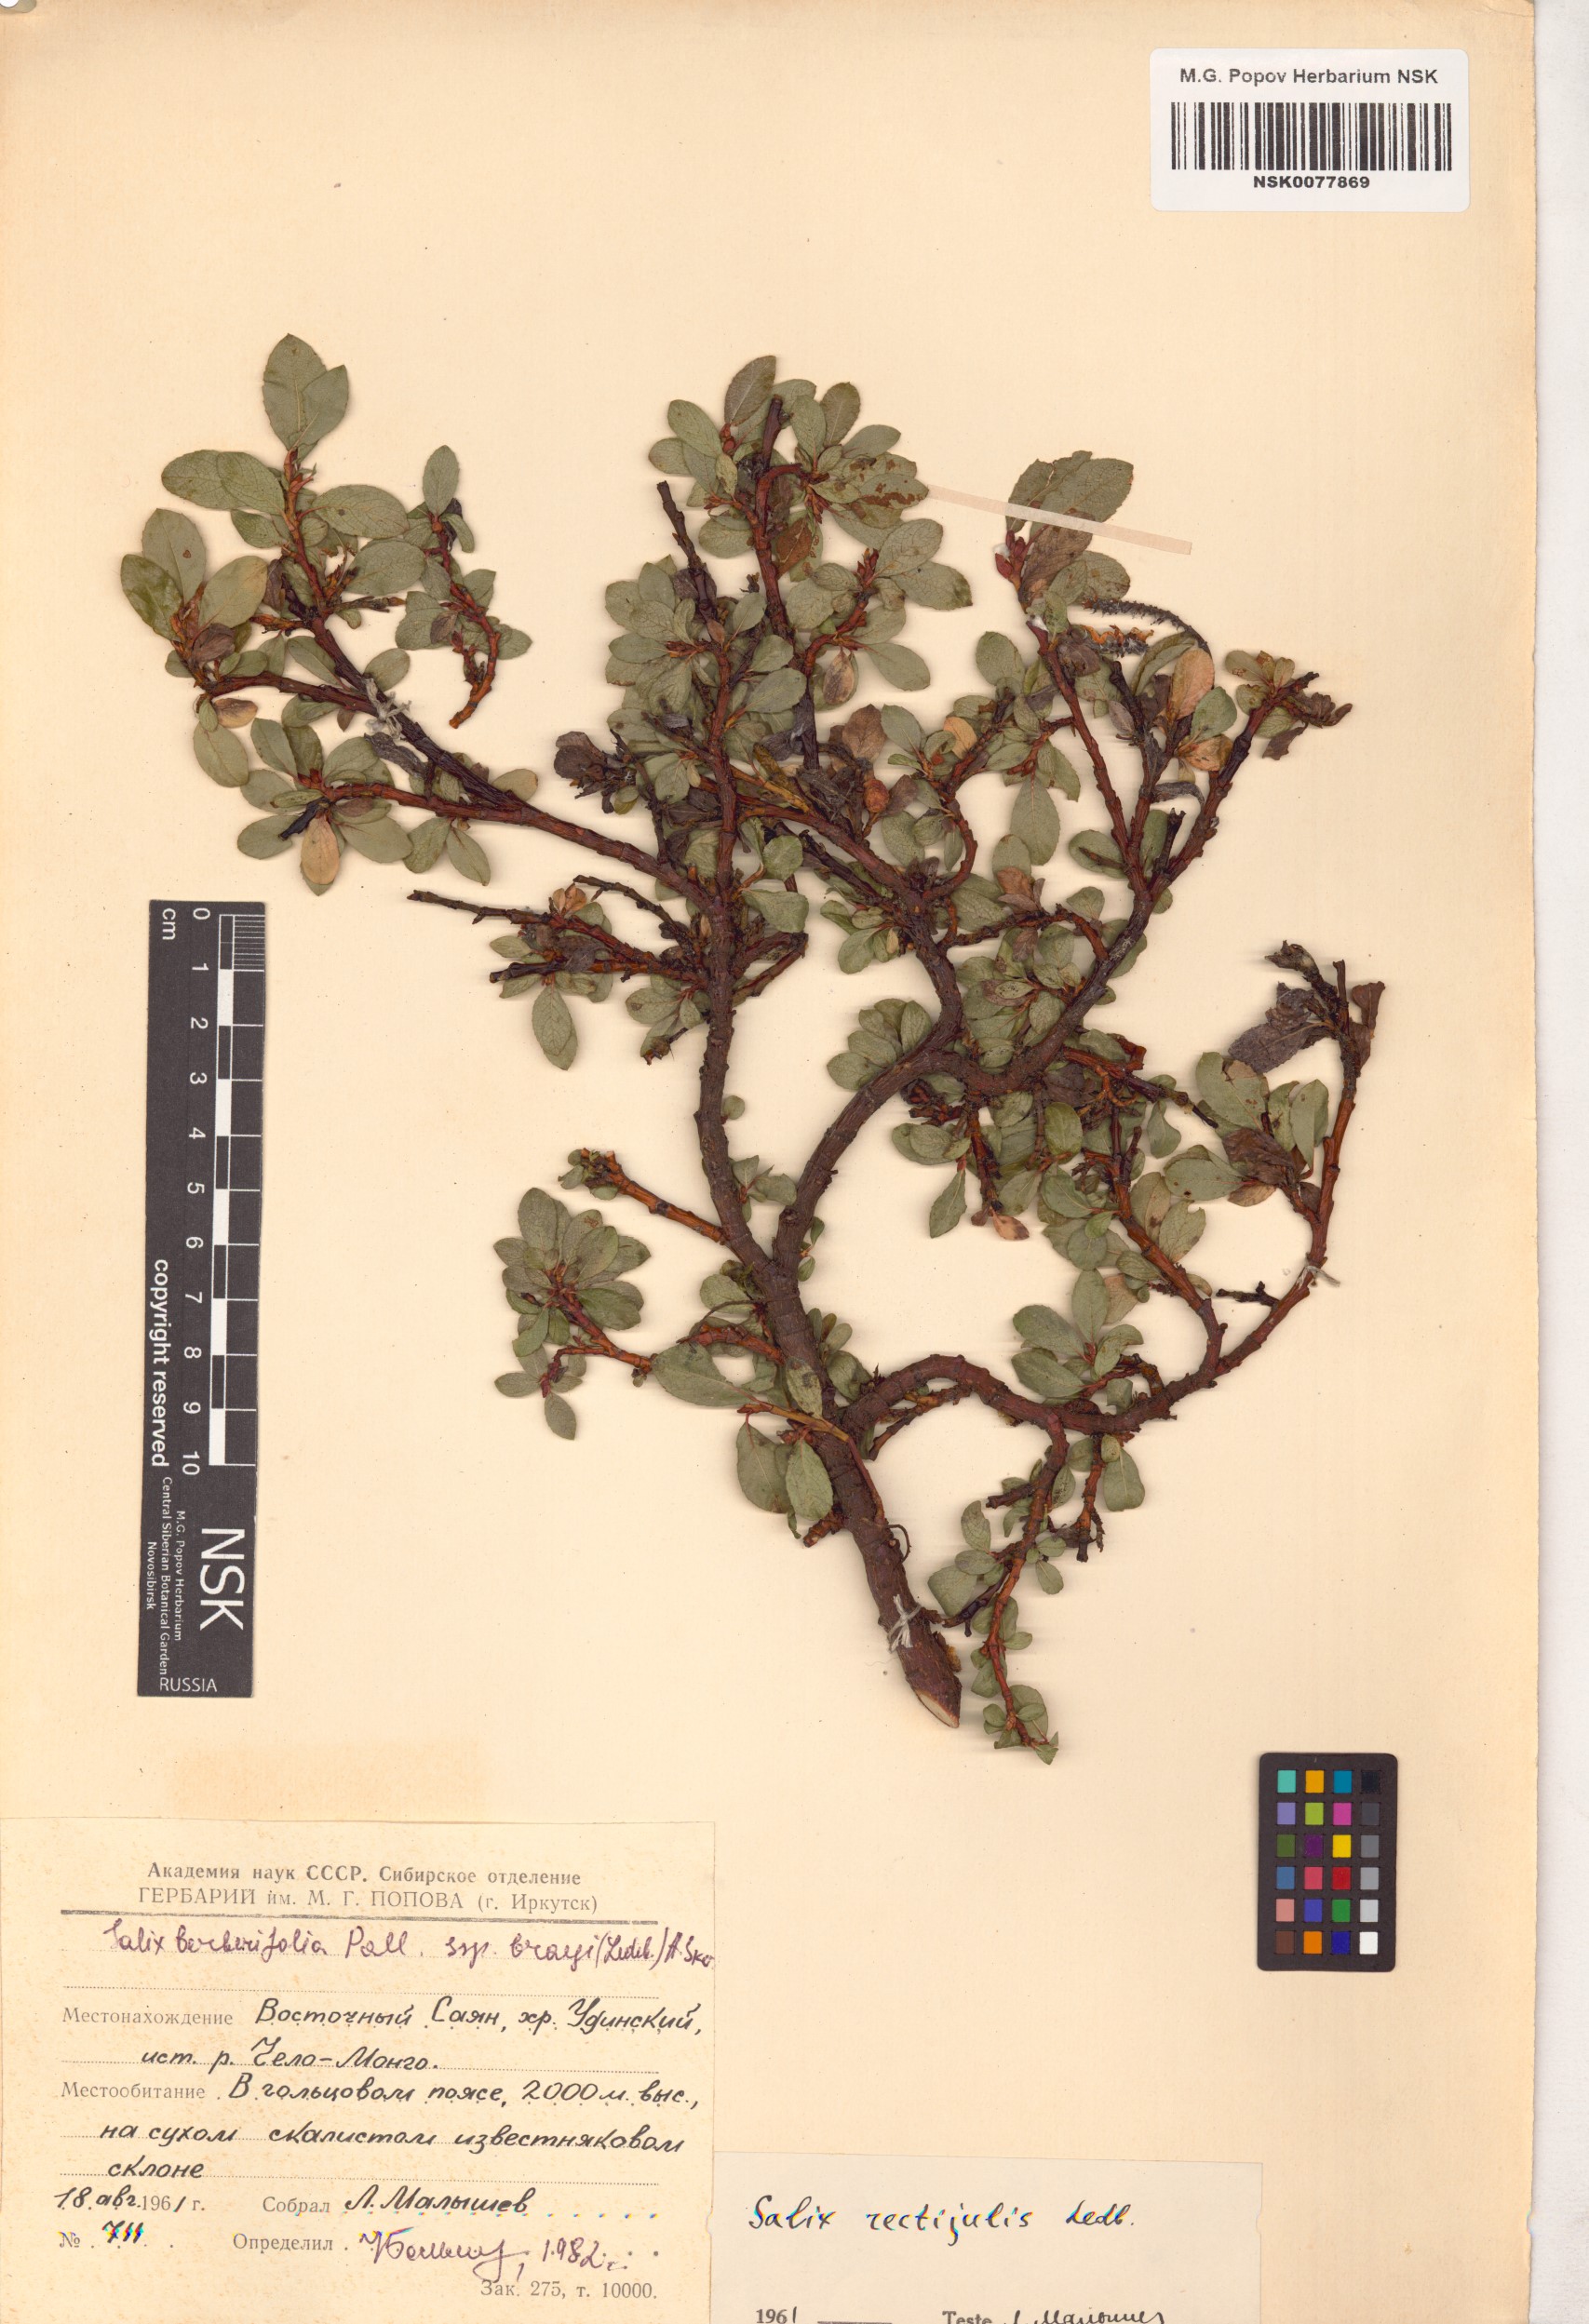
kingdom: Plantae
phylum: Tracheophyta
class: Magnoliopsida
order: Malpighiales
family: Salicaceae
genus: Salix
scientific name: Salix berberifolia
